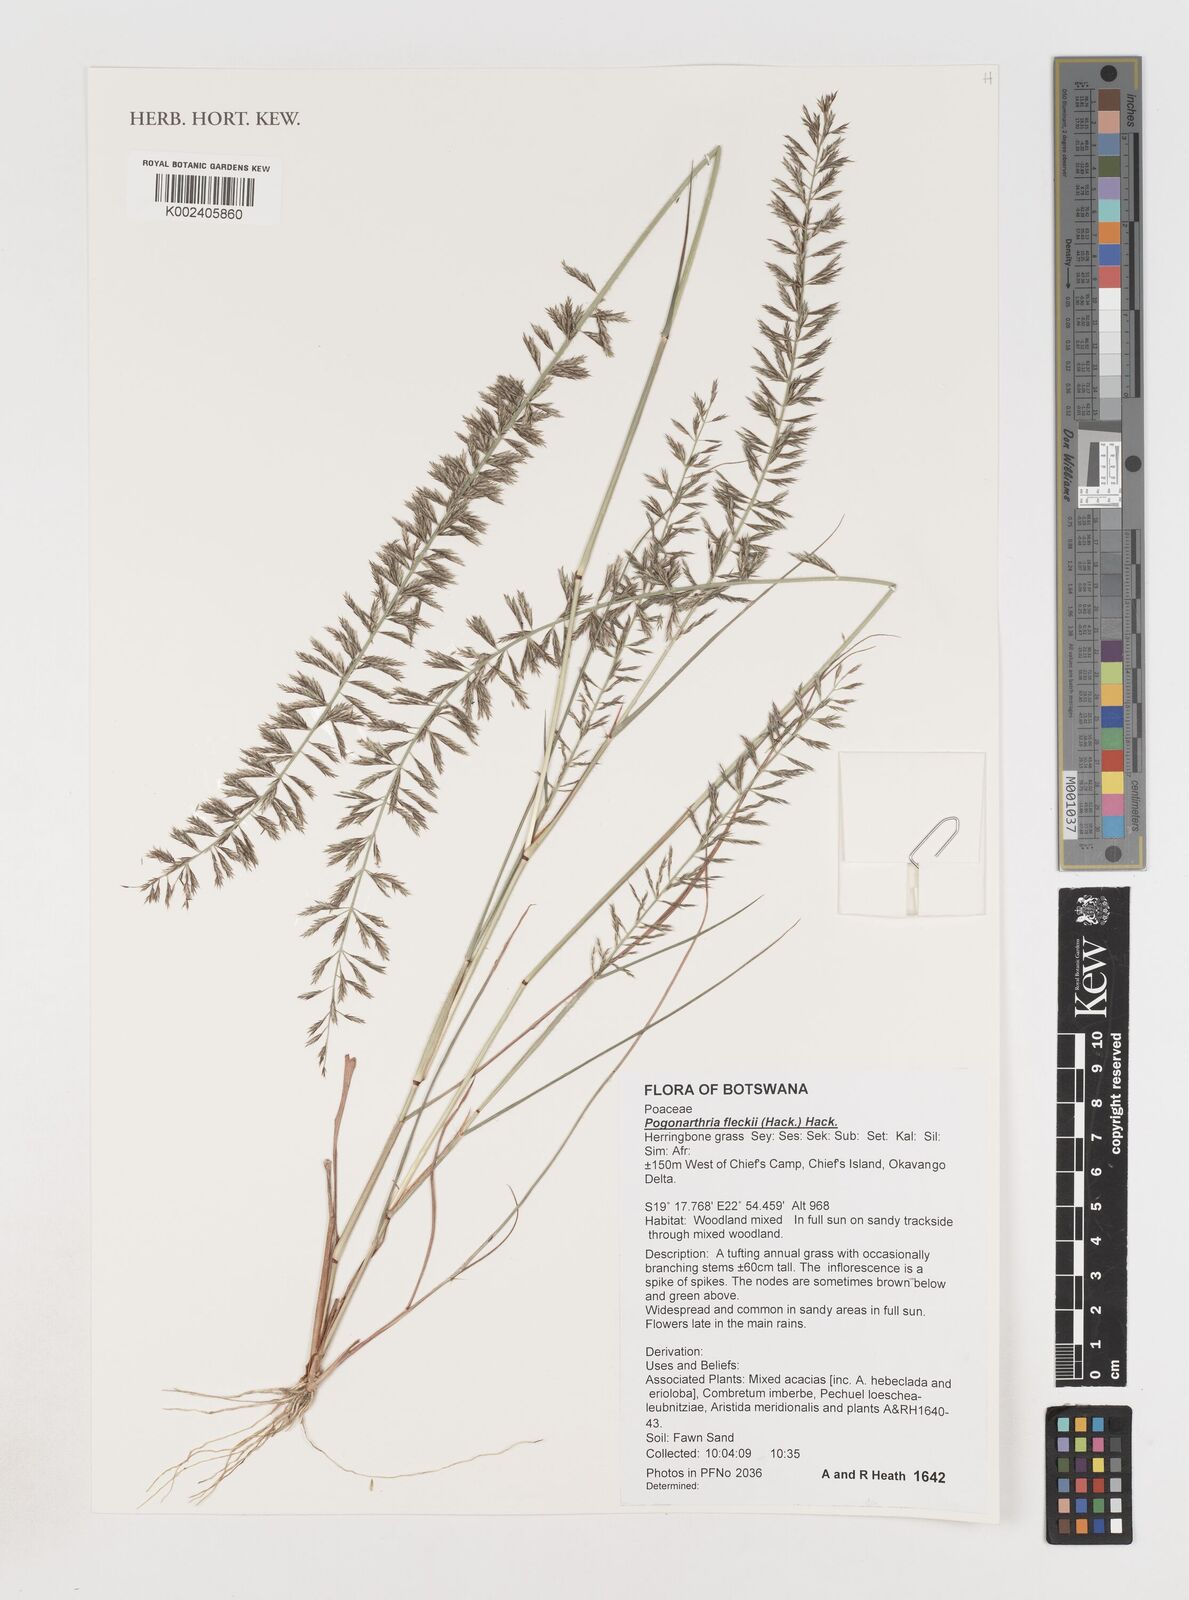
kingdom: Plantae
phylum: Tracheophyta
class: Liliopsida
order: Poales
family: Poaceae
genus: Pogonarthria
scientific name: Pogonarthria fleckii
